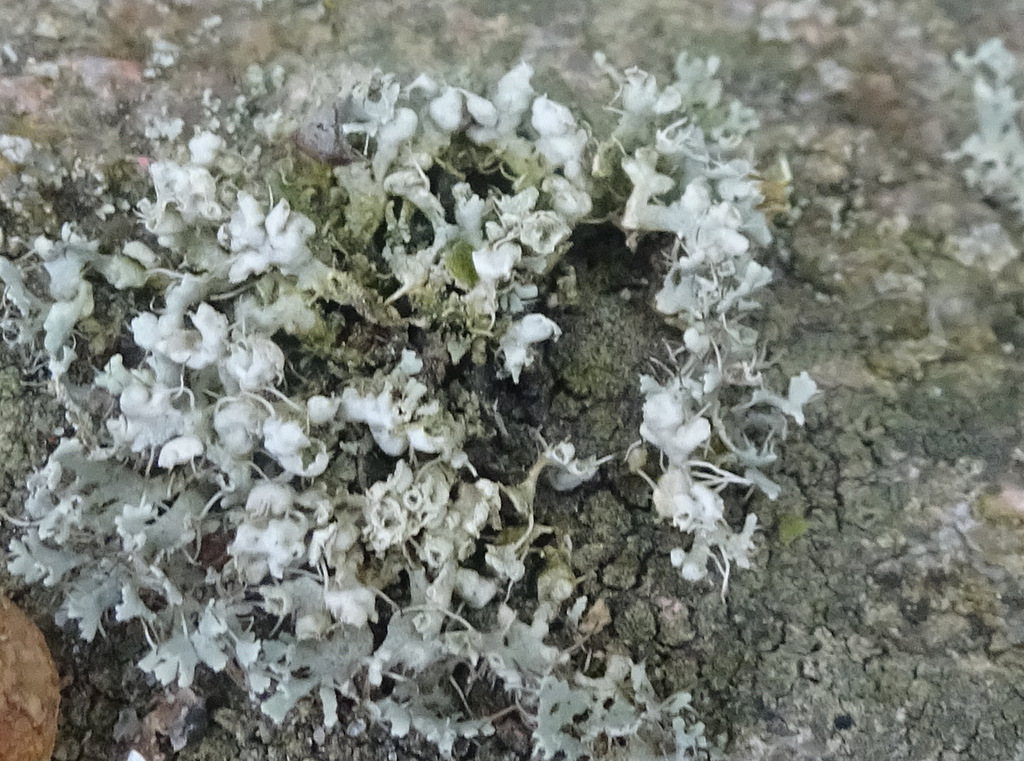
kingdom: Fungi
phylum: Ascomycota
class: Lecanoromycetes
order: Caliciales
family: Physciaceae
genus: Physcia
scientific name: Physcia adscendens
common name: hætte-rosetlav
